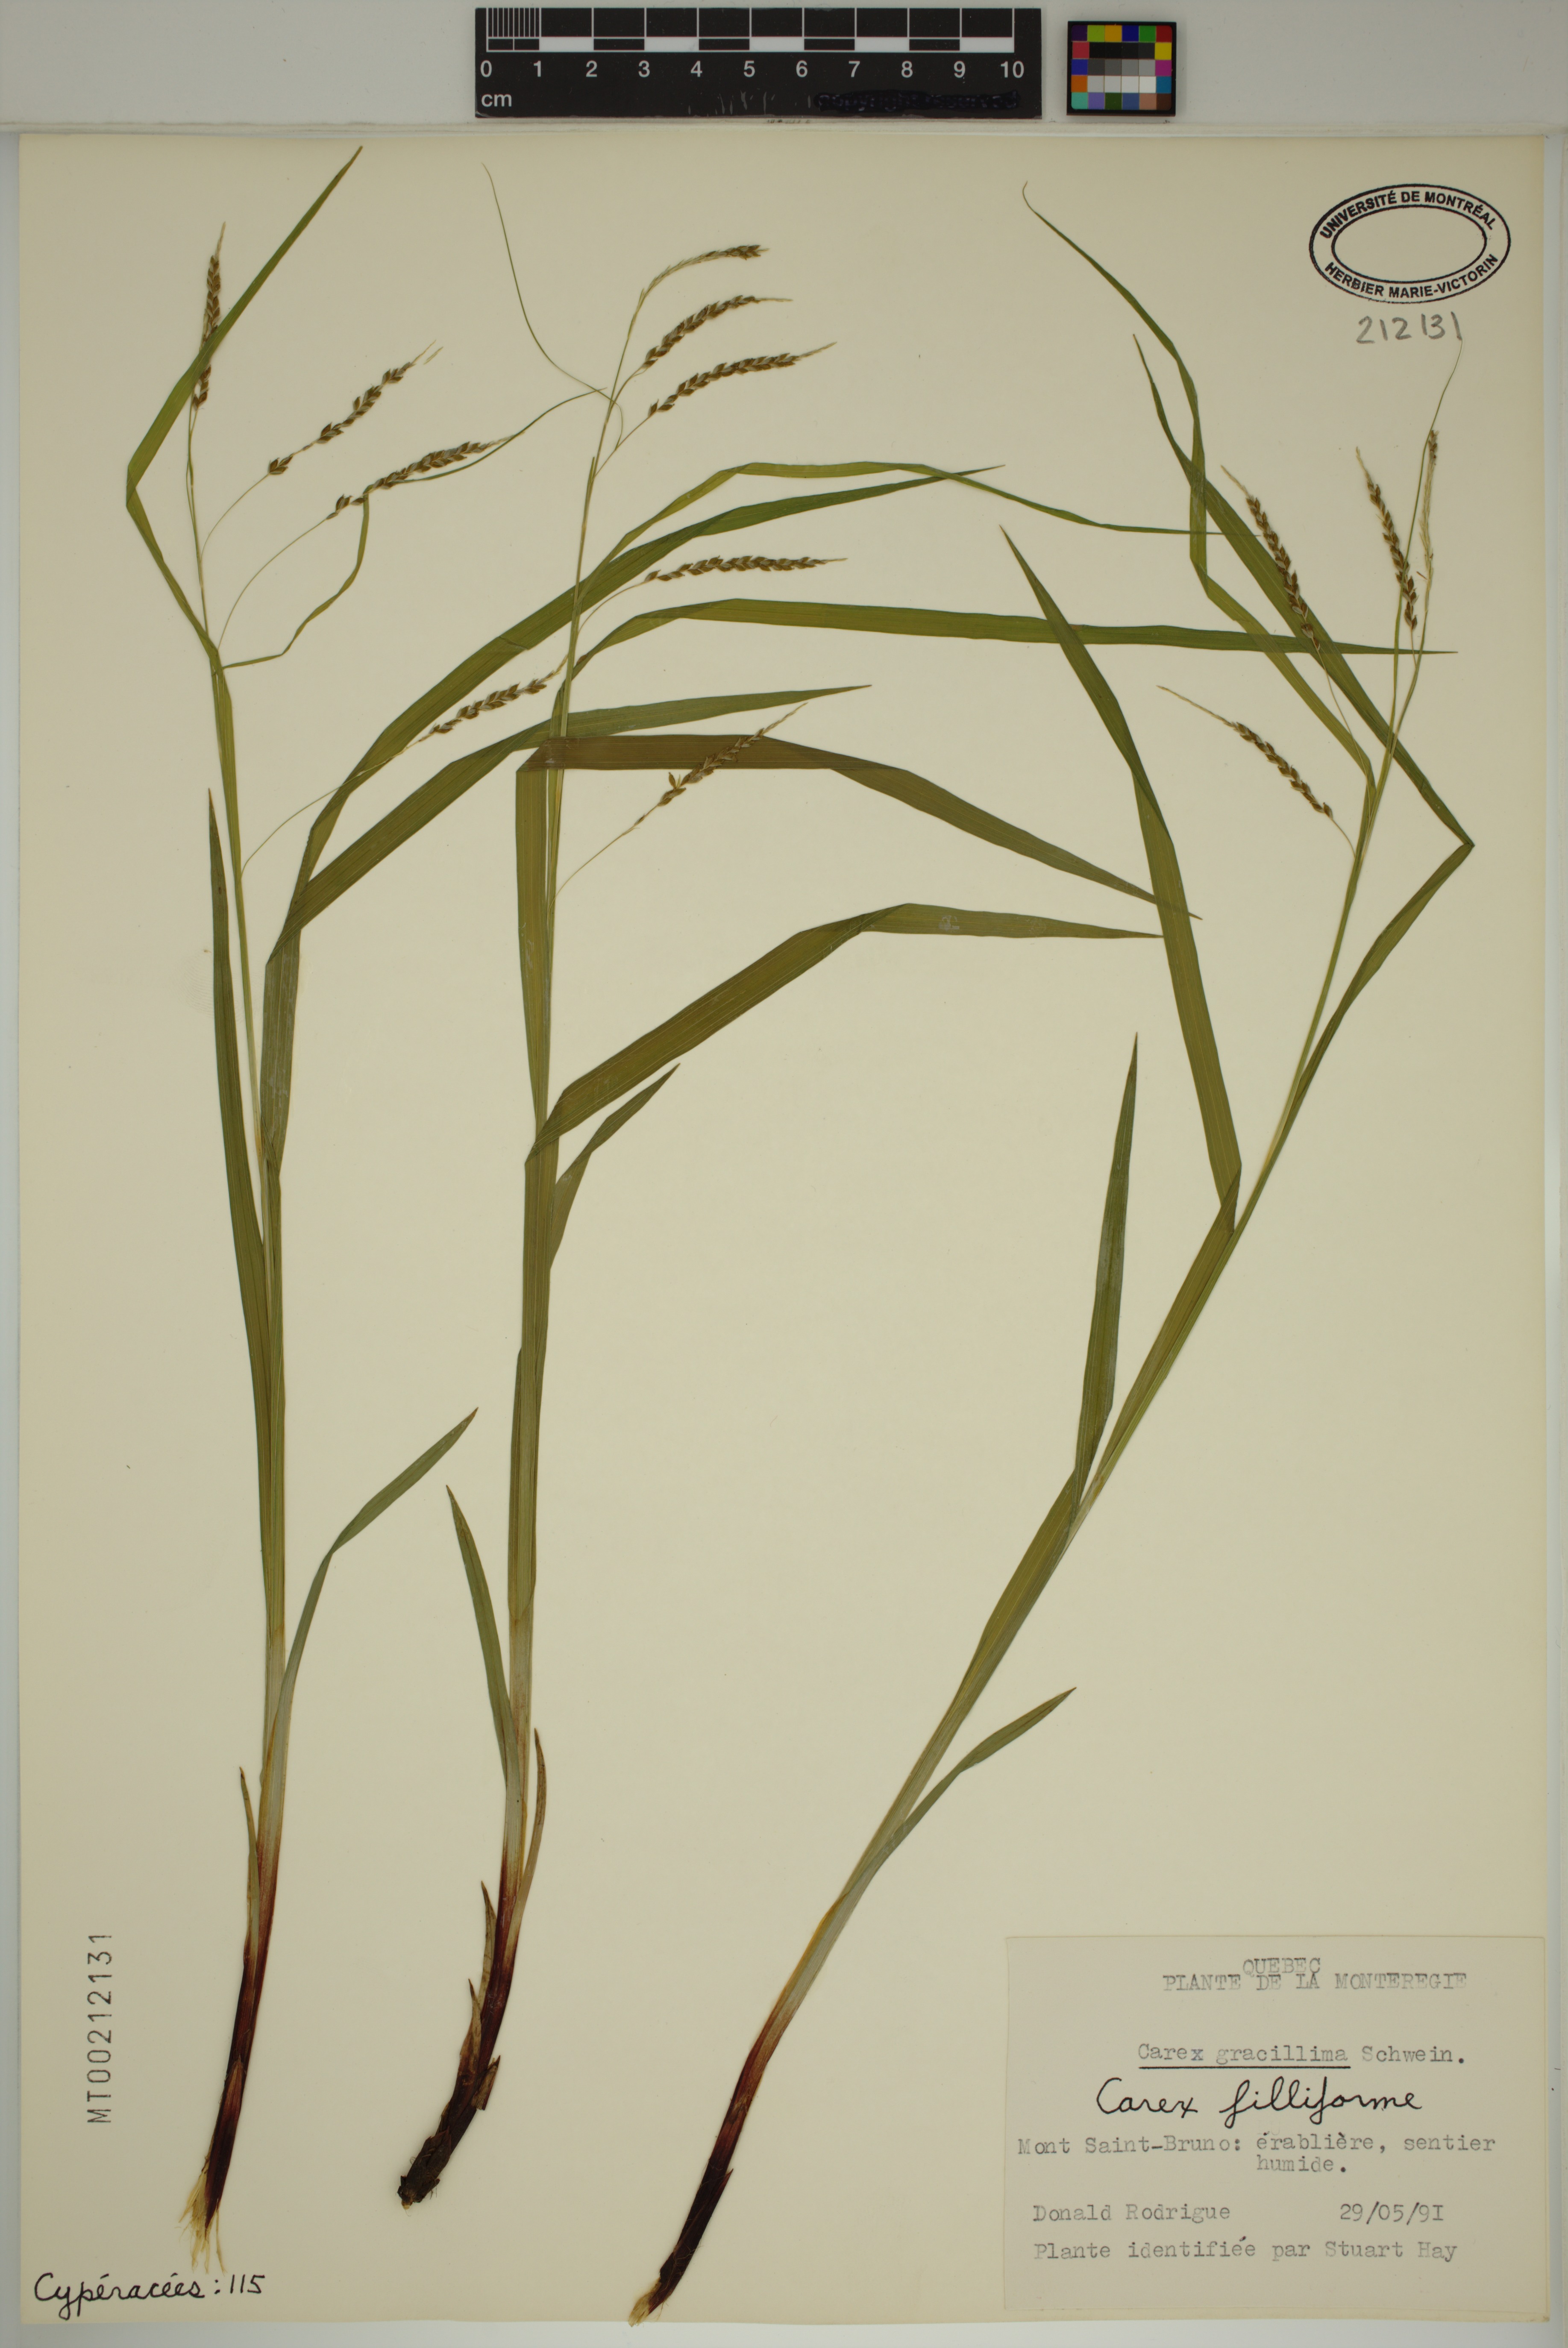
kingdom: Plantae
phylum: Tracheophyta
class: Liliopsida
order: Poales
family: Cyperaceae
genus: Carex
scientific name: Carex gracillima
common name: Graceful sedge
